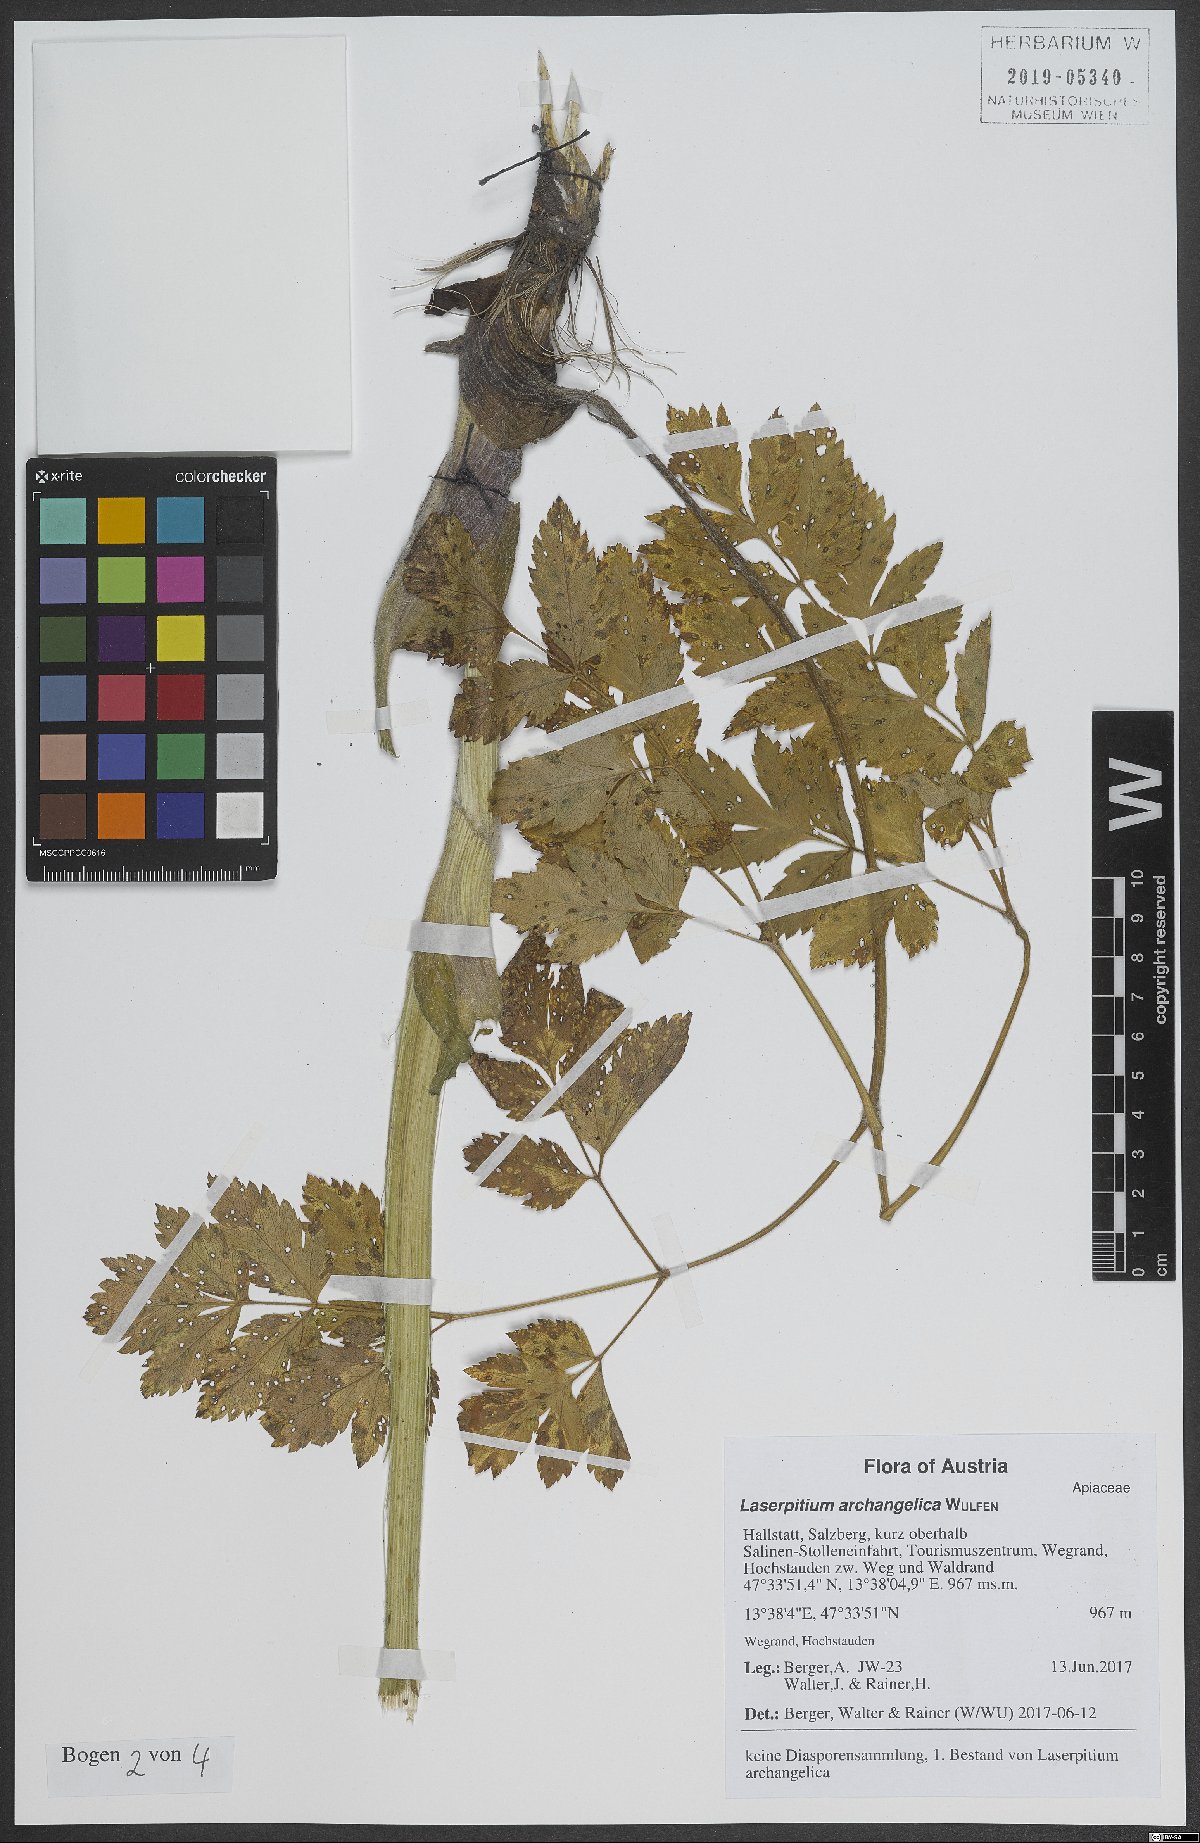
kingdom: Plantae
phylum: Tracheophyta
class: Magnoliopsida
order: Apiales
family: Apiaceae
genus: Laser
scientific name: Laser archangelica
